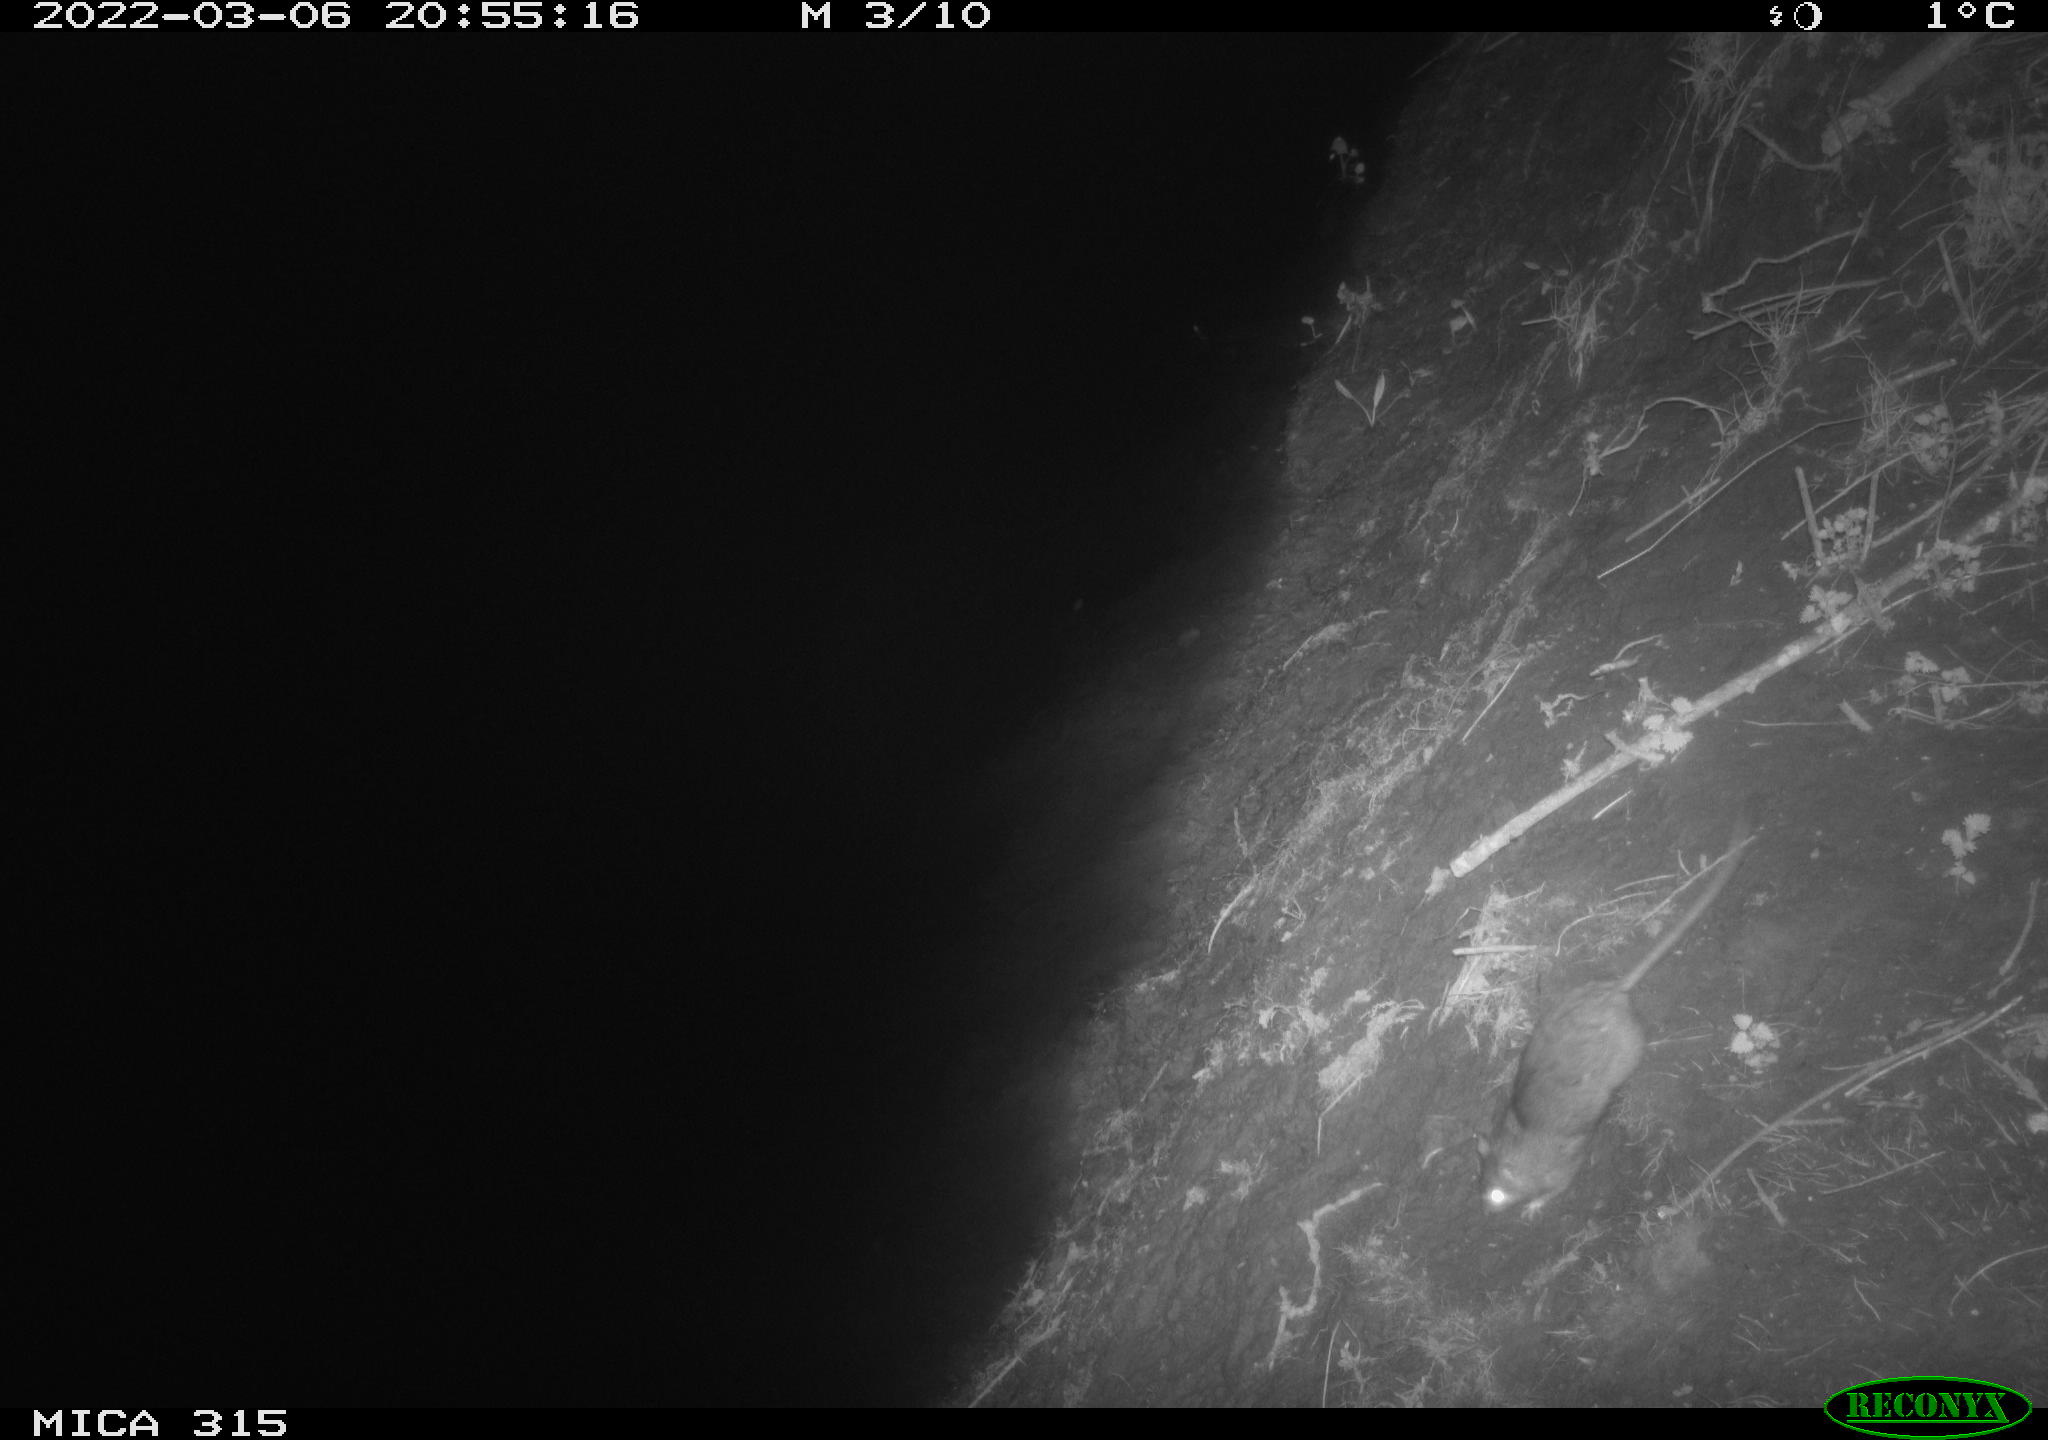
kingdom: Animalia
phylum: Chordata
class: Mammalia
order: Rodentia
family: Muridae
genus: Rattus
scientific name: Rattus norvegicus
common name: Brown rat
